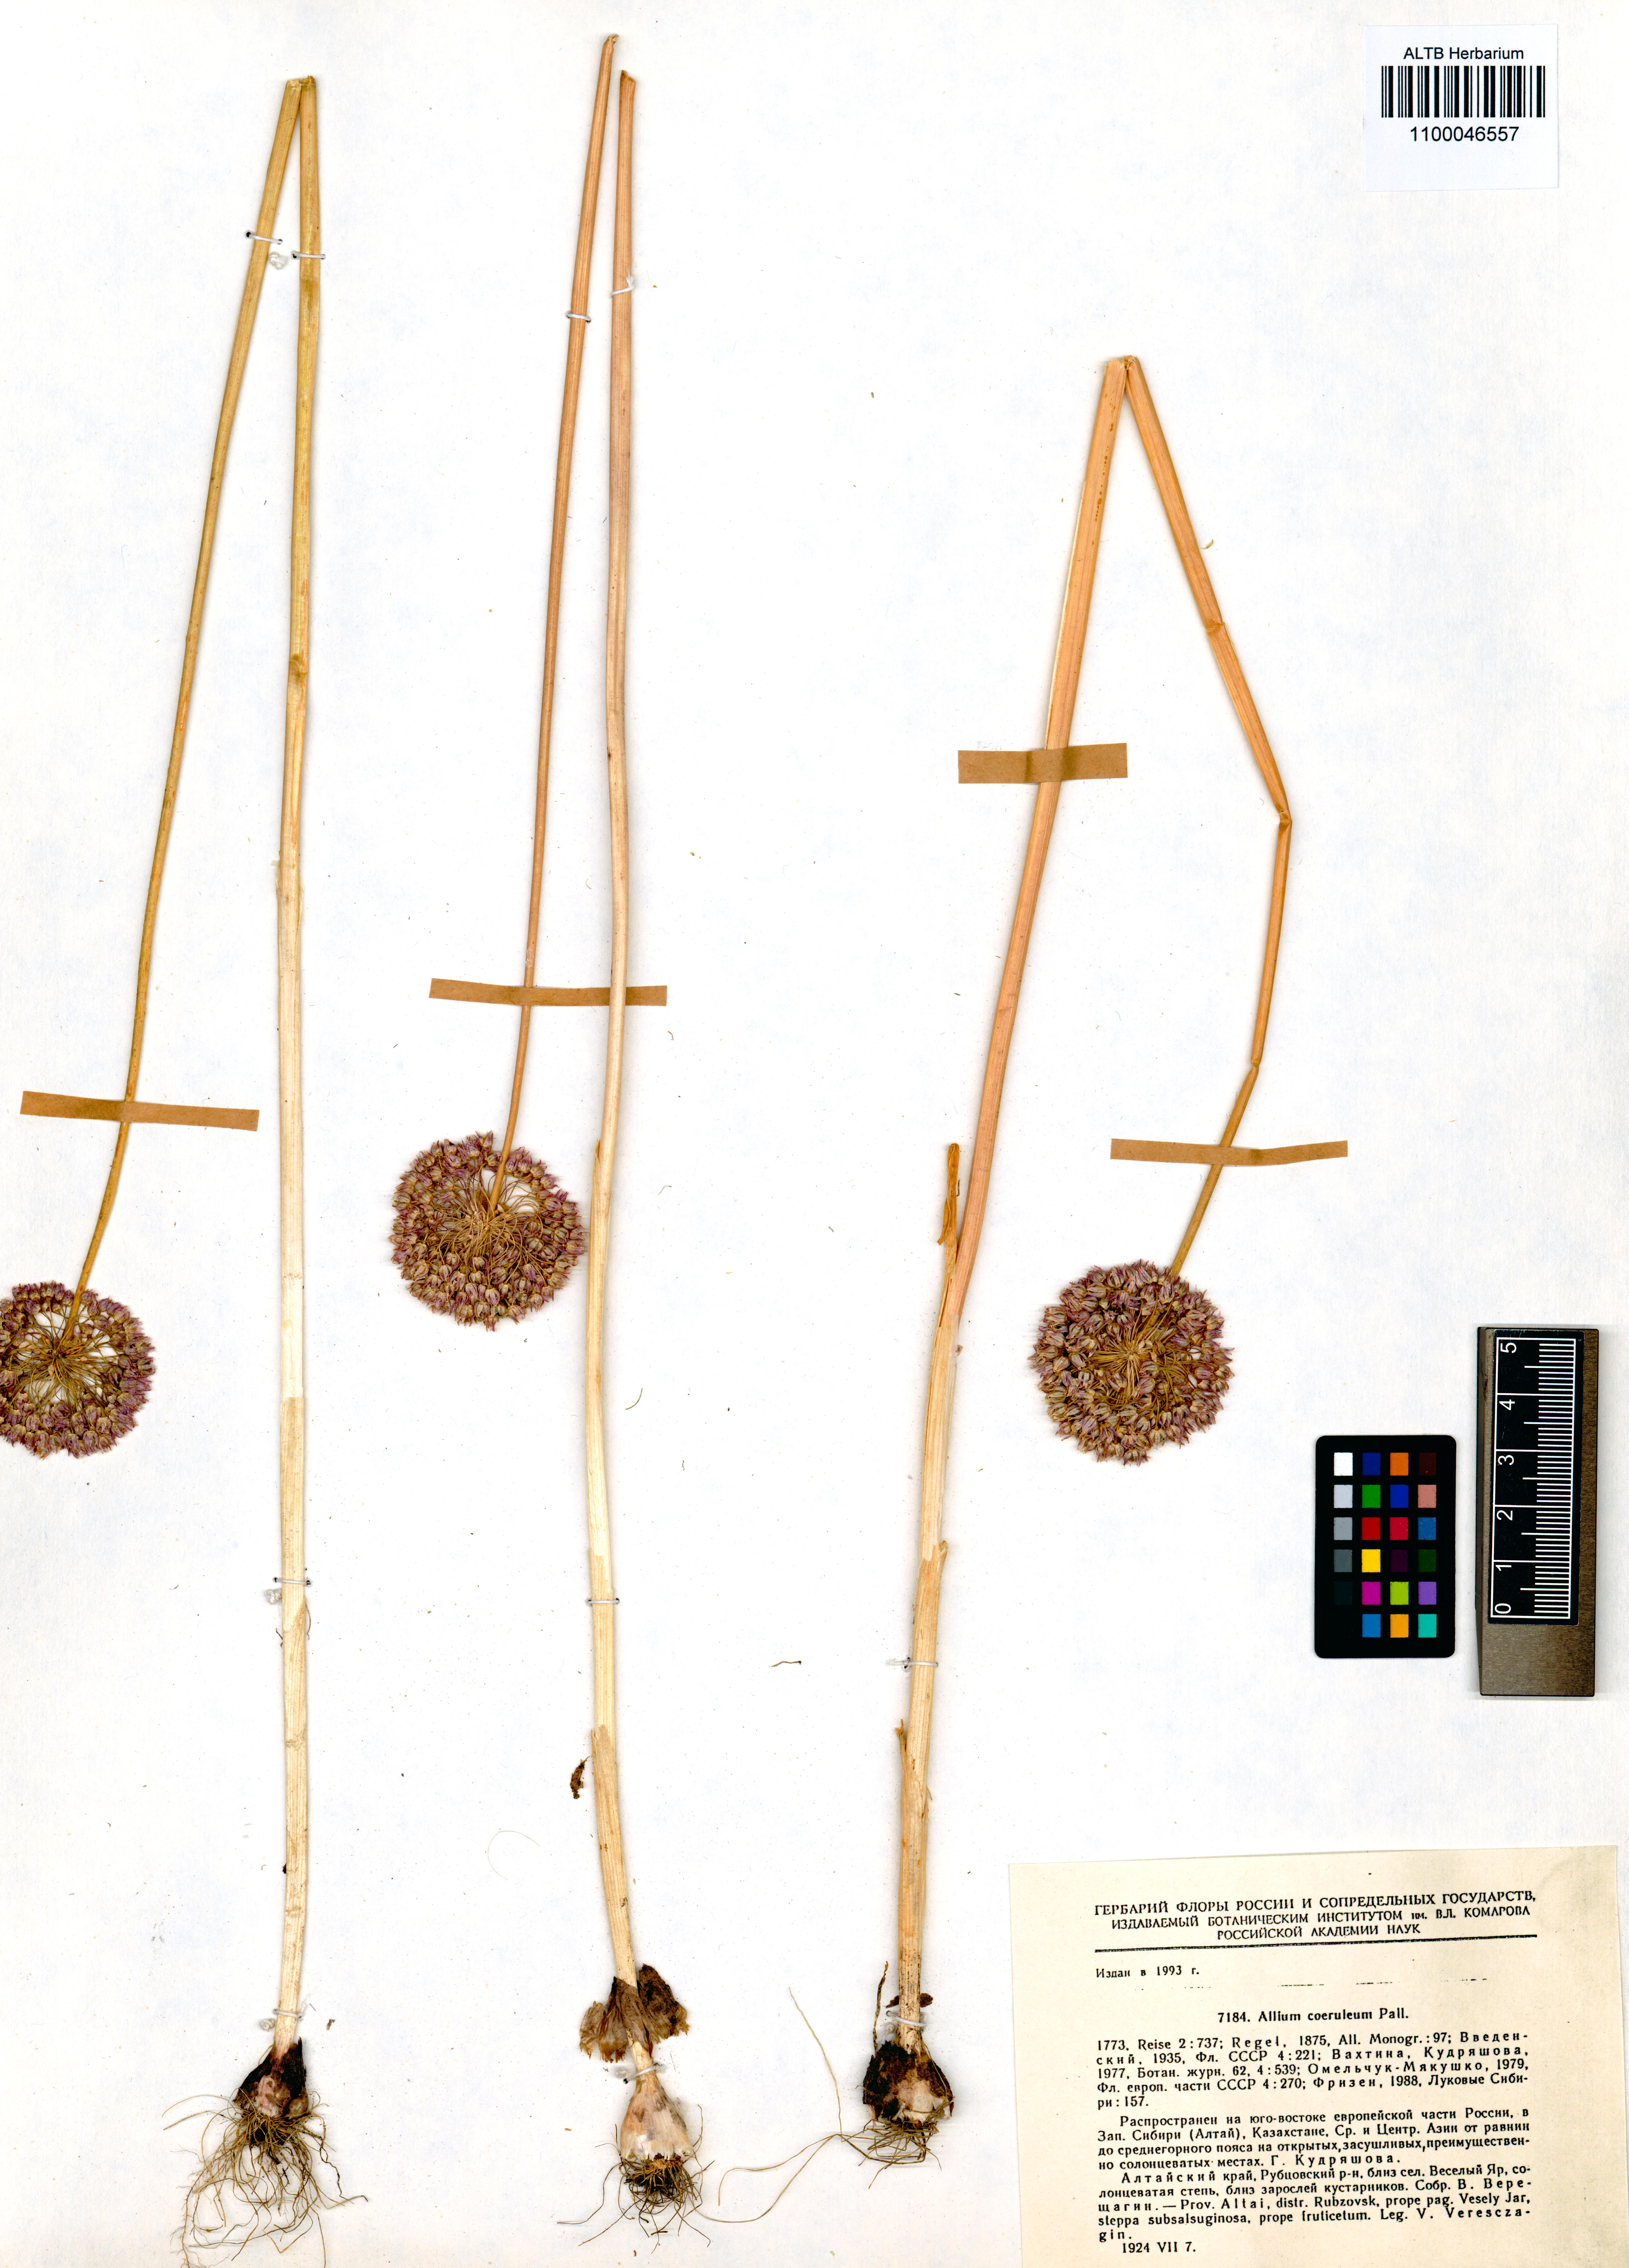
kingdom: Plantae
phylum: Tracheophyta
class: Liliopsida
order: Asparagales
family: Amaryllidaceae
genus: Allium
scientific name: Allium caeruleum
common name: Blue-of-the-heavens
